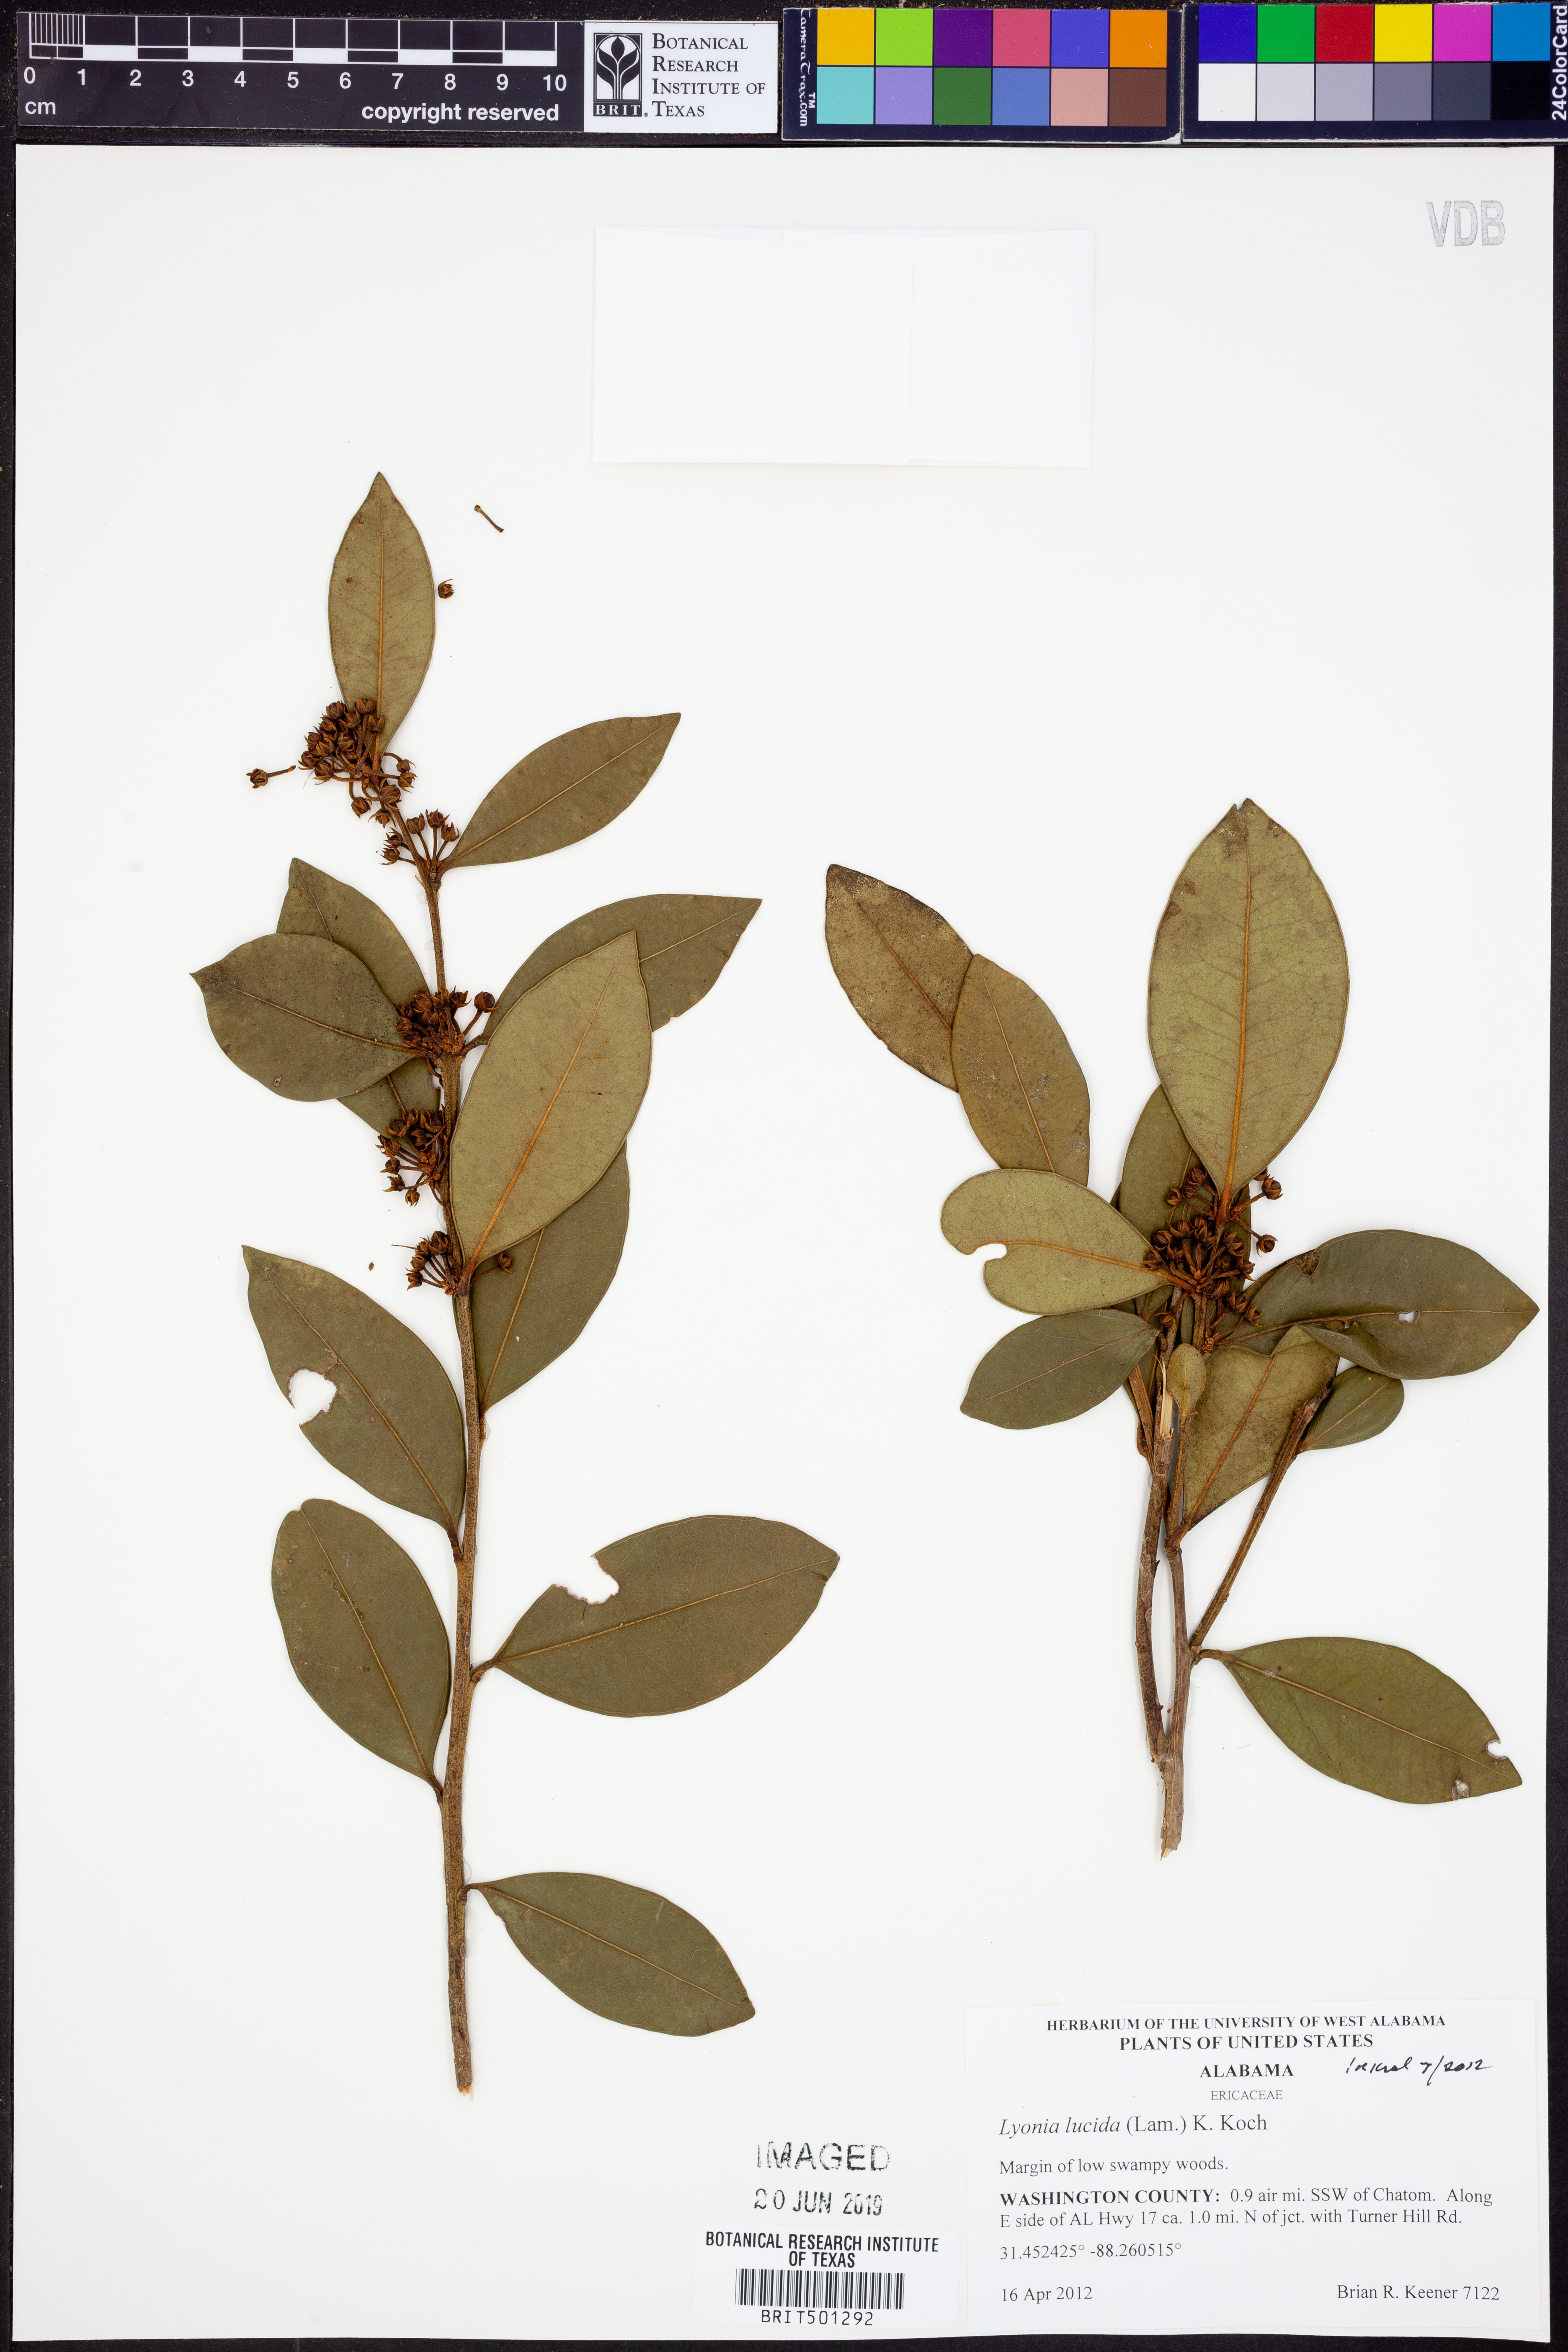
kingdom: Plantae
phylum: Tracheophyta
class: Magnoliopsida
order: Ericales
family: Ericaceae
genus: Lyonia
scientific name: Lyonia lucida
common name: Fetterbush
